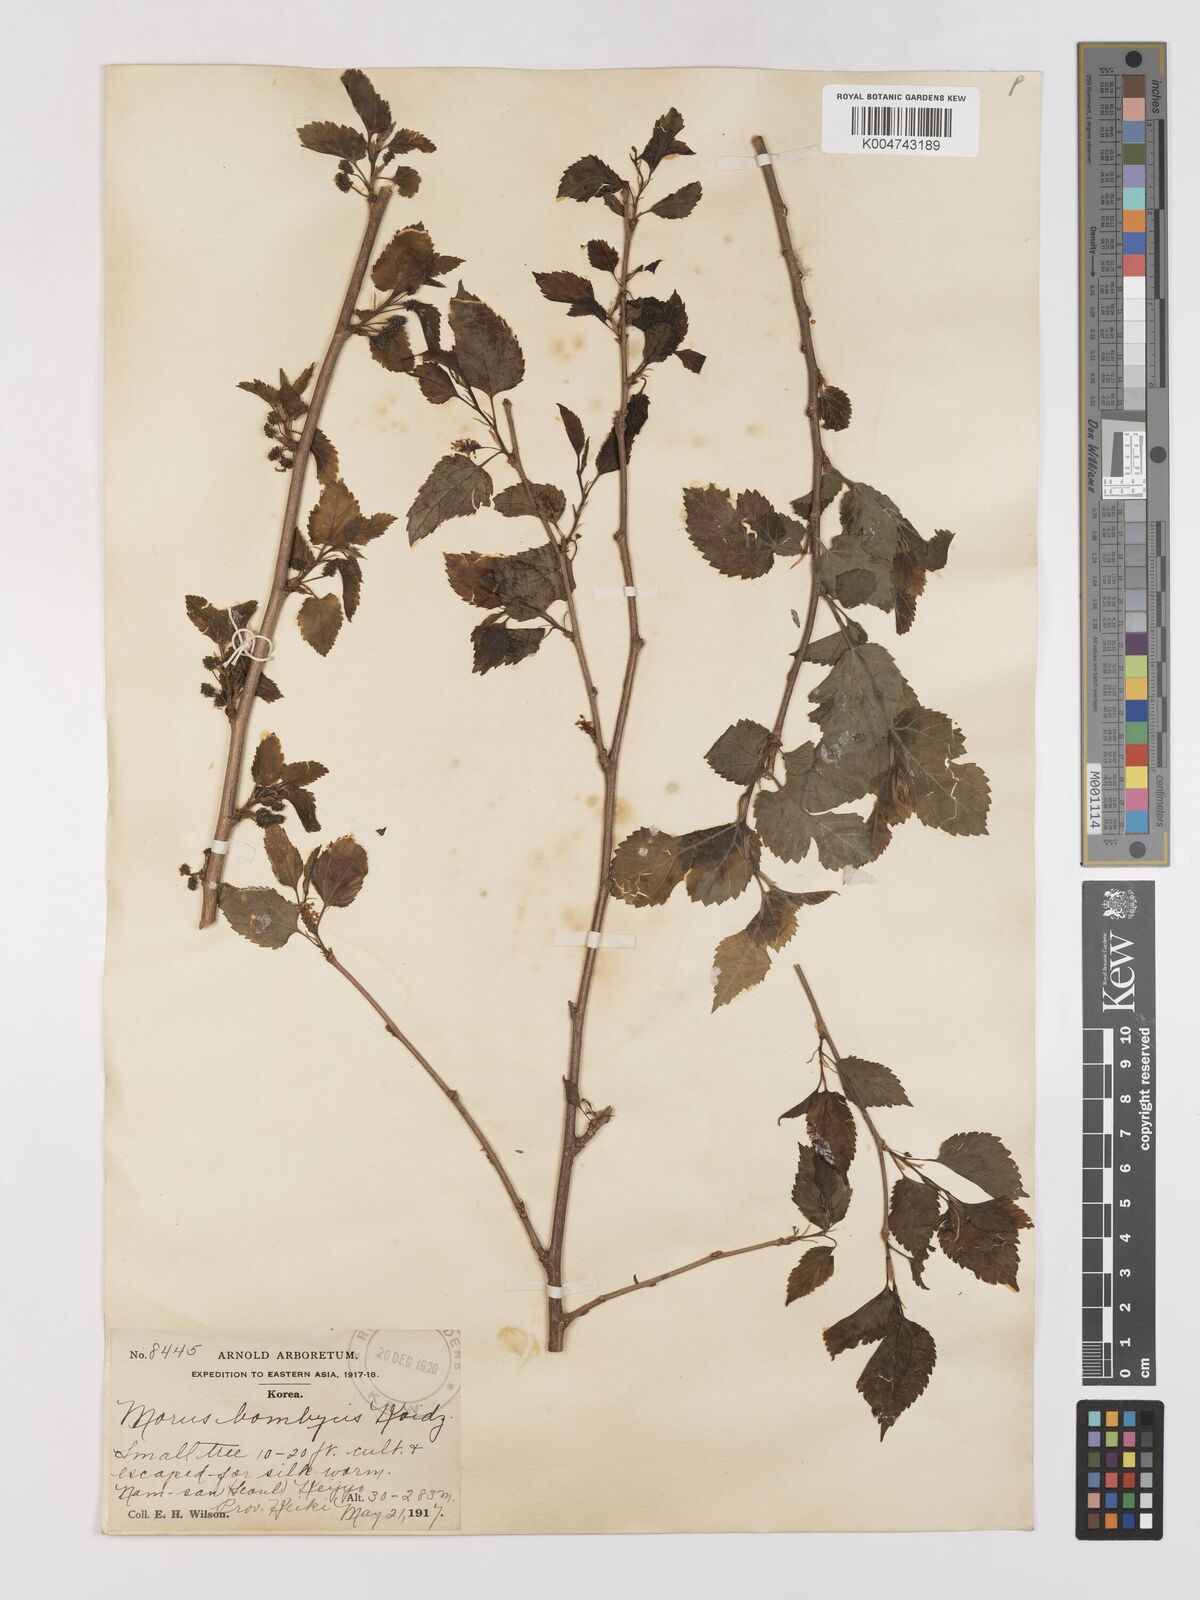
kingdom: Plantae
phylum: Tracheophyta
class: Magnoliopsida
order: Rosales
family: Moraceae
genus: Morus
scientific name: Morus indica
